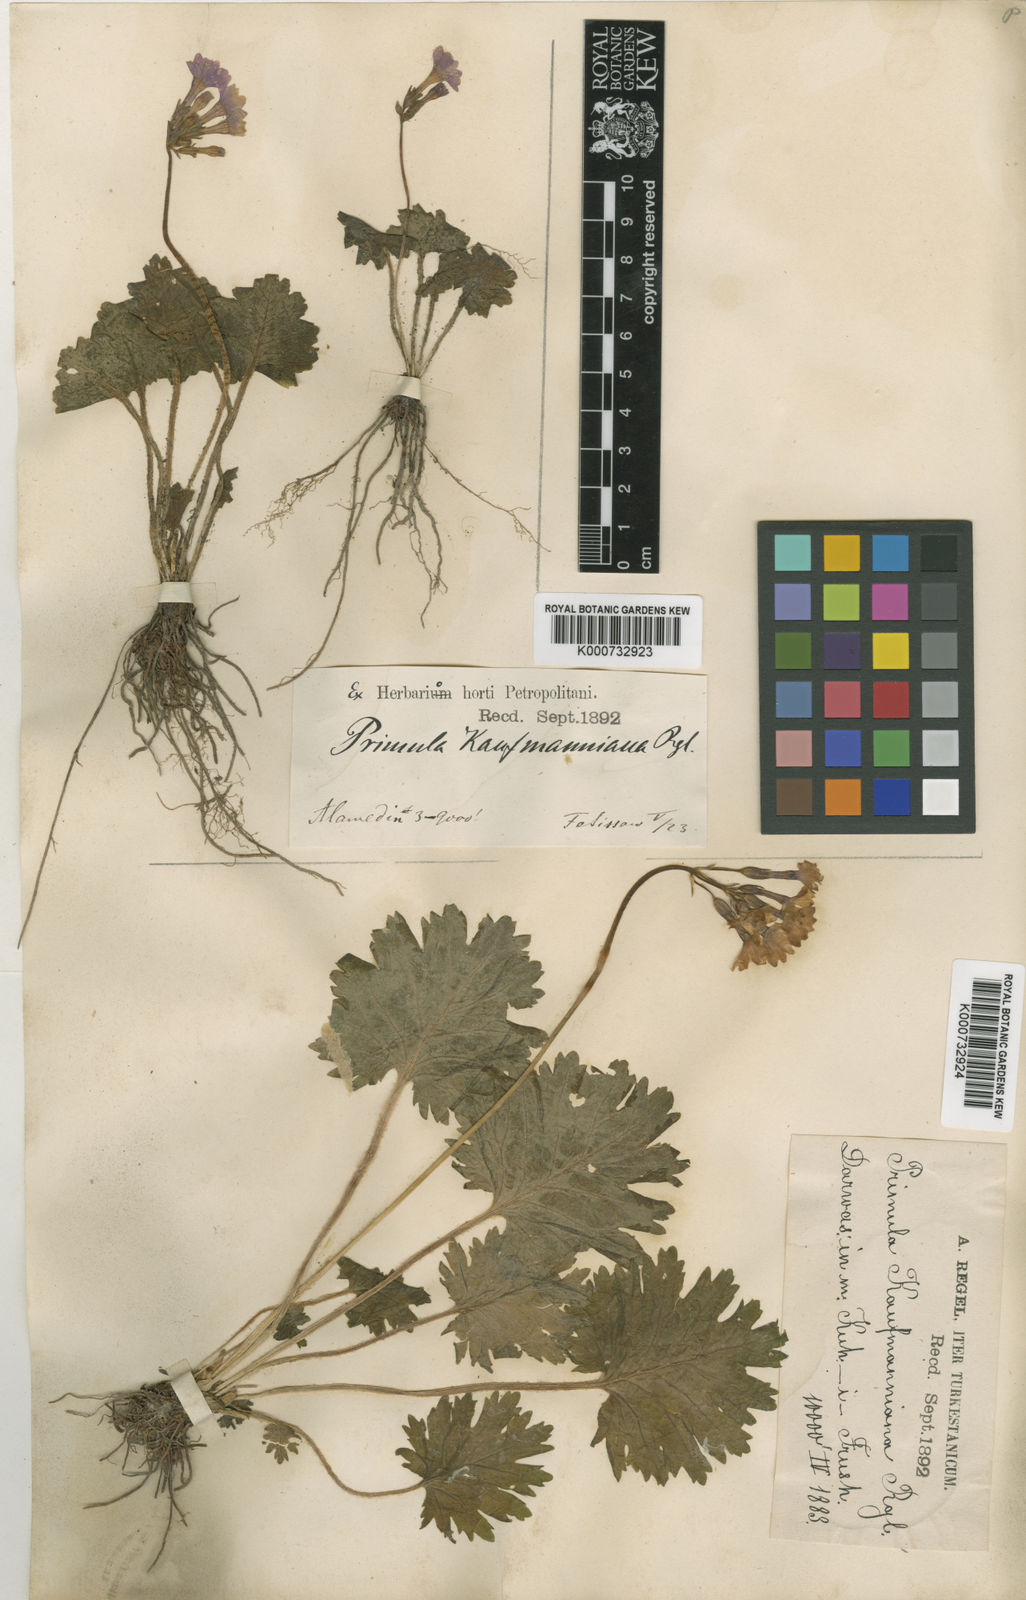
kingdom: Plantae
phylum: Tracheophyta
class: Magnoliopsida
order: Ericales
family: Primulaceae
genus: Primula
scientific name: Primula kaufmanniana
